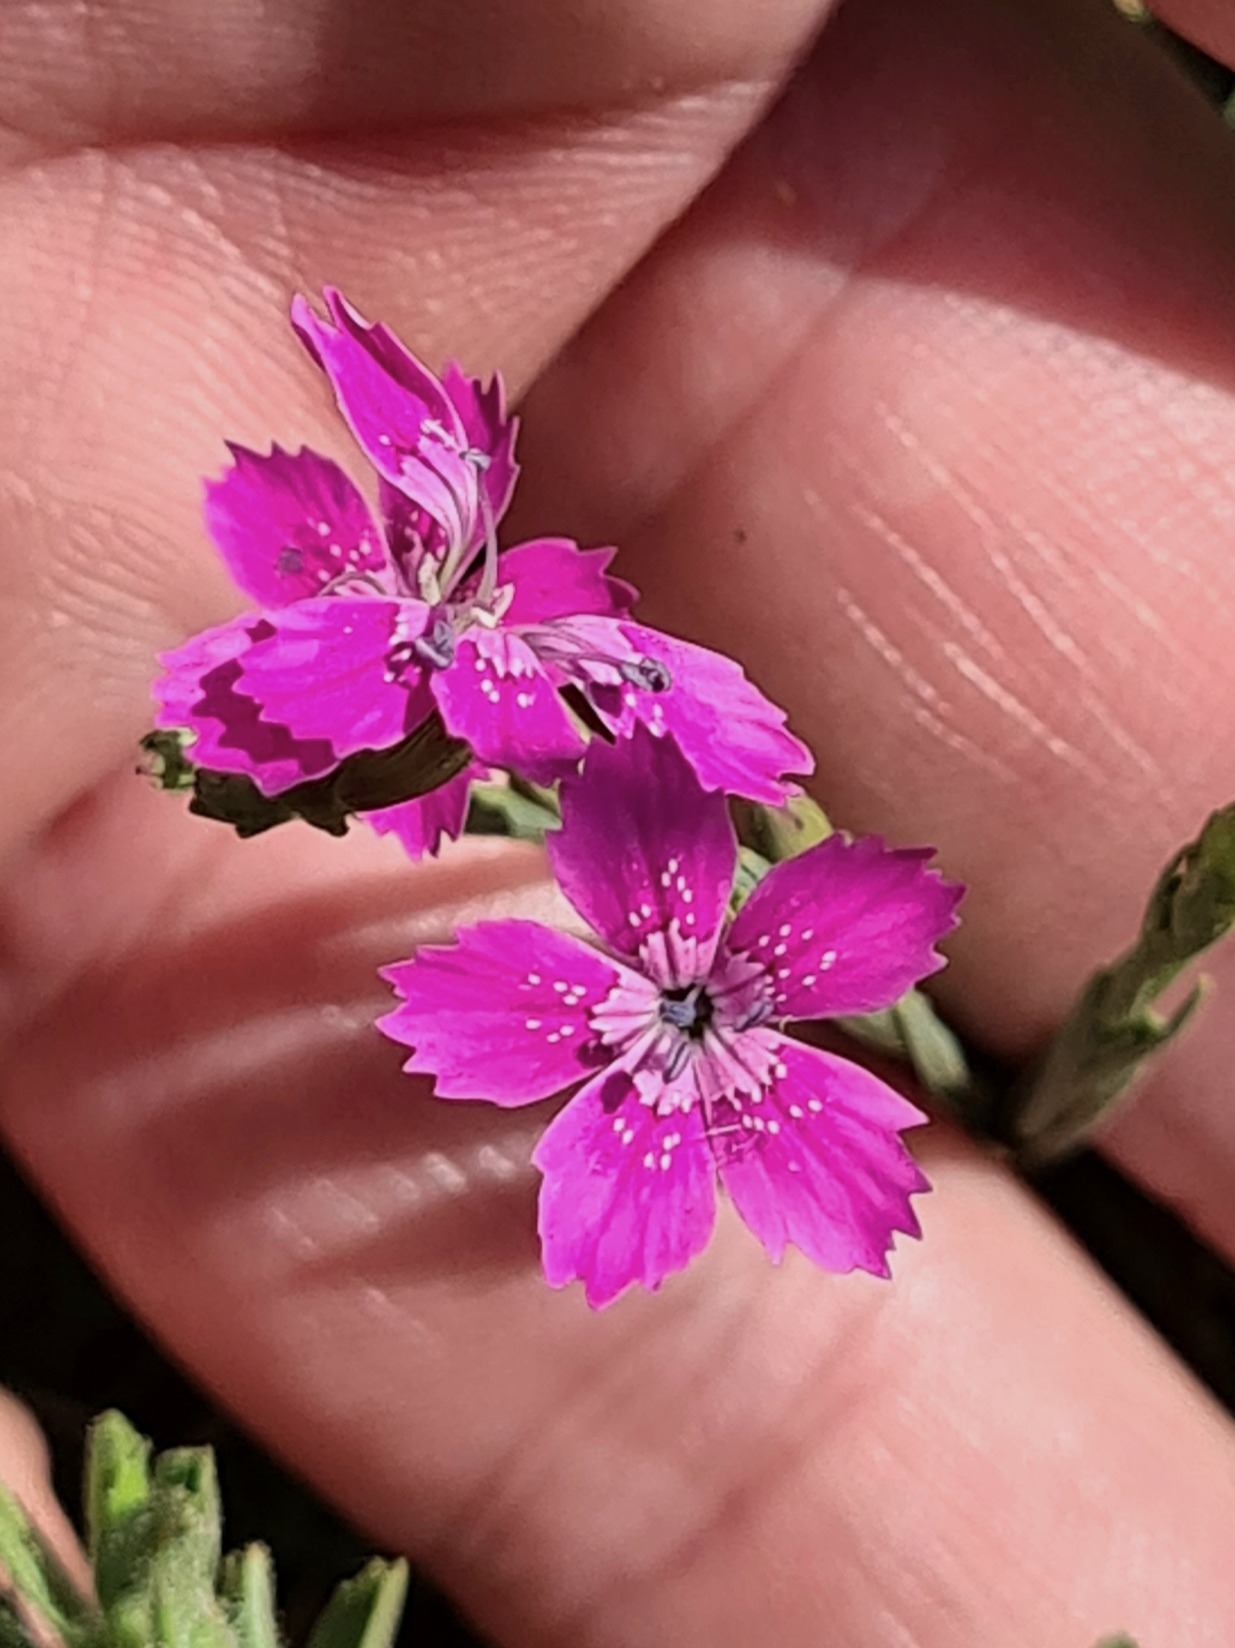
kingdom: Plantae
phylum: Tracheophyta
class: Magnoliopsida
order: Caryophyllales
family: Caryophyllaceae
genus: Dianthus
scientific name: Dianthus deltoides
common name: Bakke-nellike
